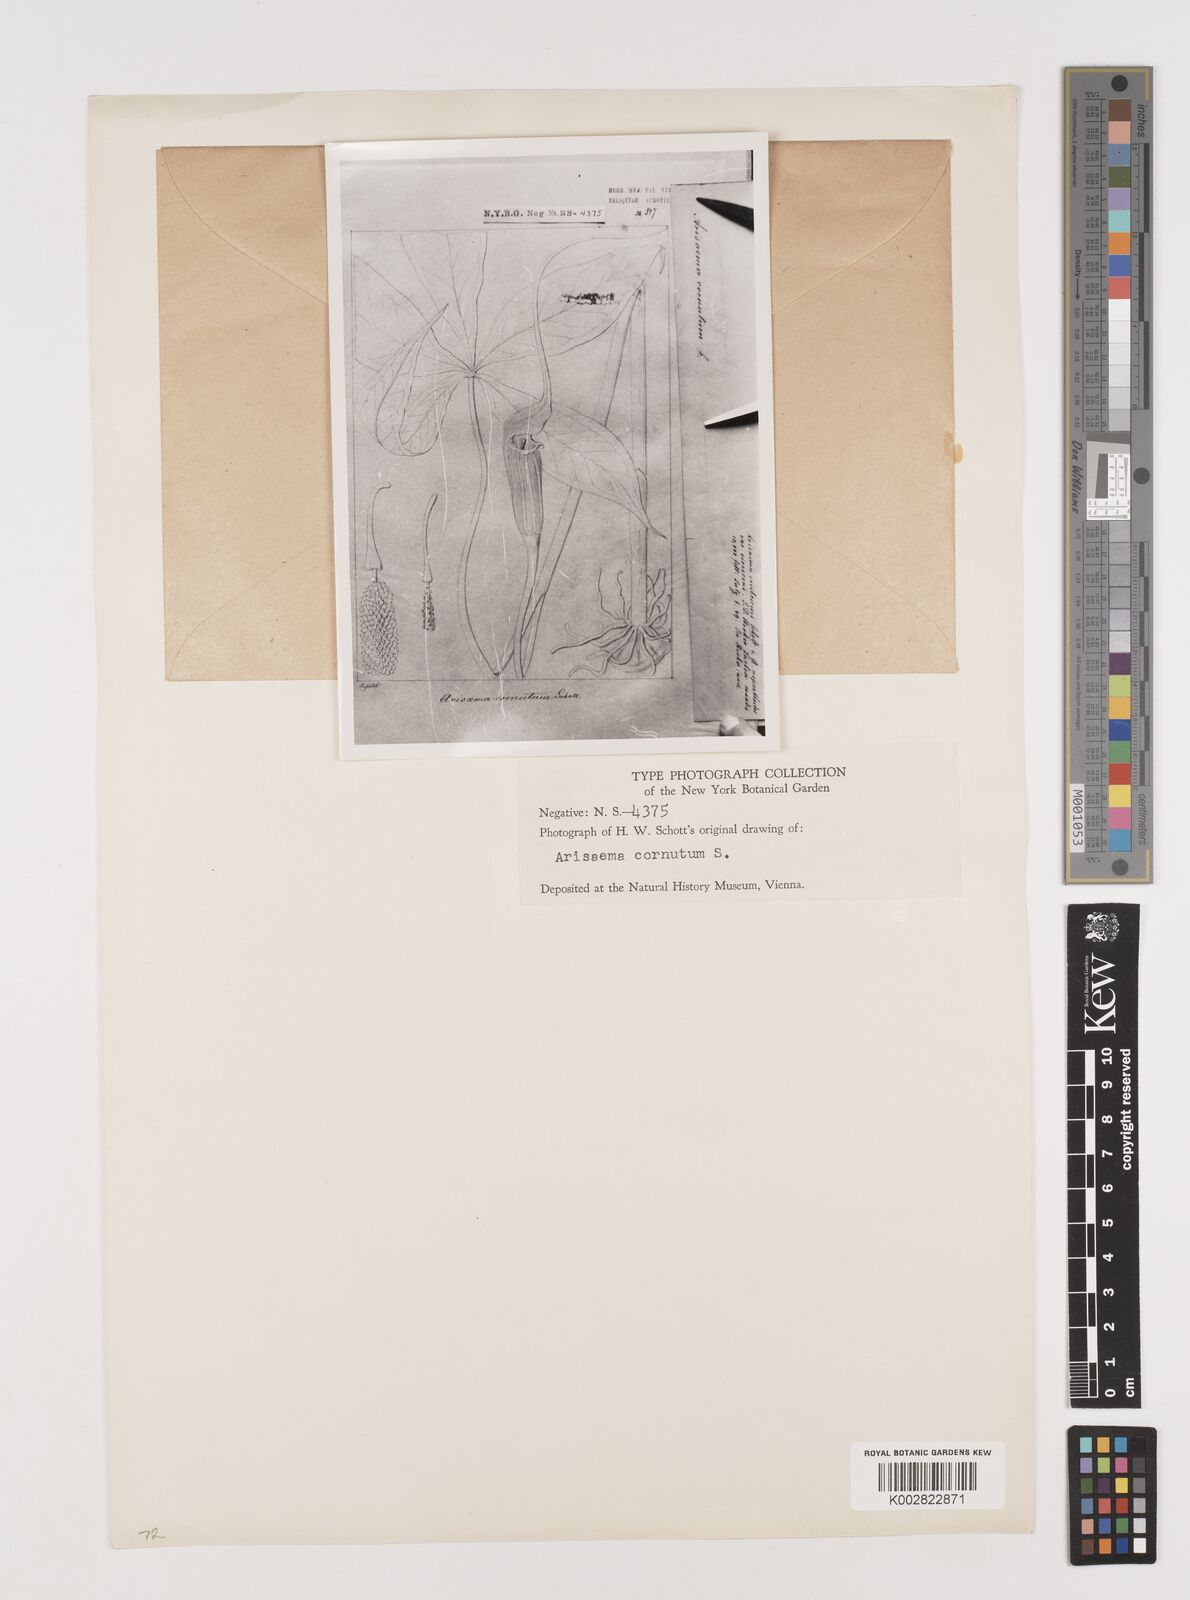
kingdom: Plantae
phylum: Tracheophyta
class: Liliopsida
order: Alismatales
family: Araceae
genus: Arisaema
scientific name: Arisaema erubescens
